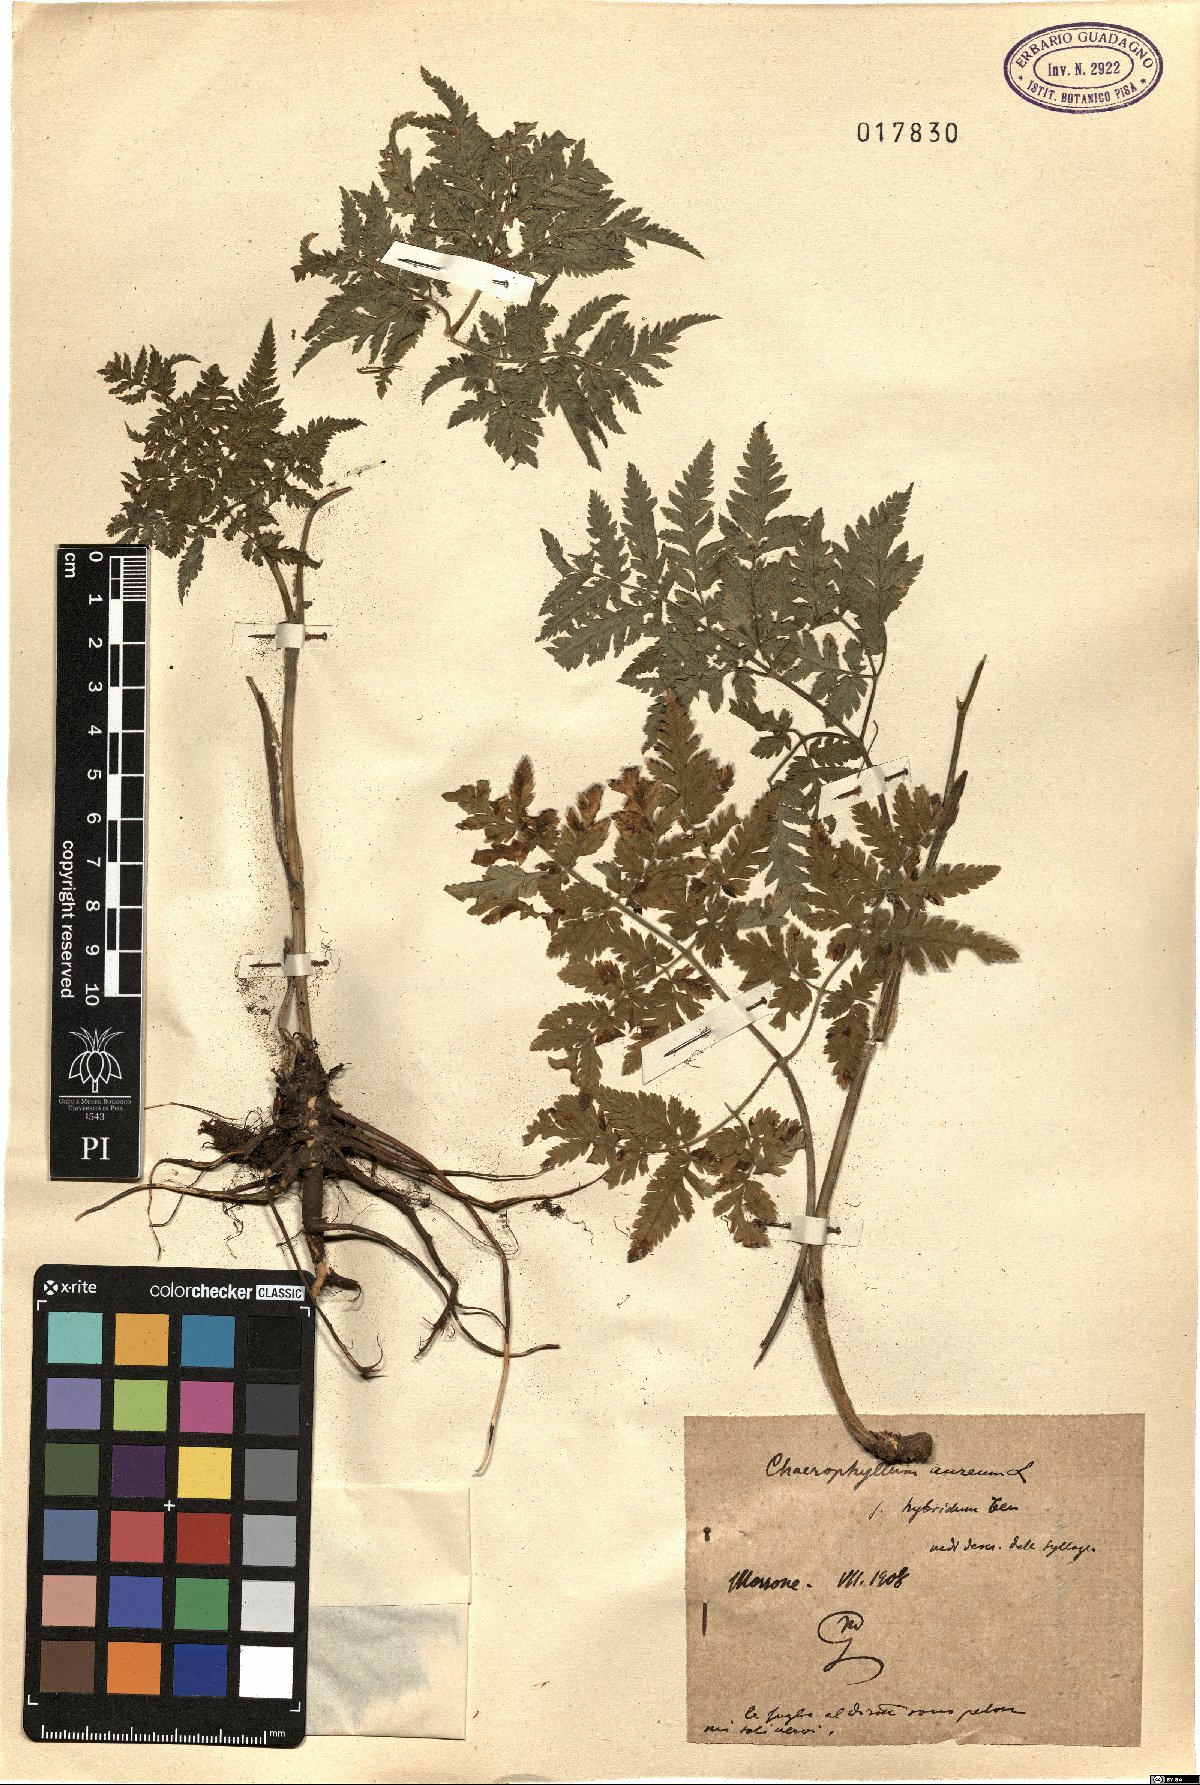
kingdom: Plantae
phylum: Tracheophyta
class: Magnoliopsida
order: Apiales
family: Apiaceae
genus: Chaerophyllum
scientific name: Chaerophyllum aureum
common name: Golden chervil
